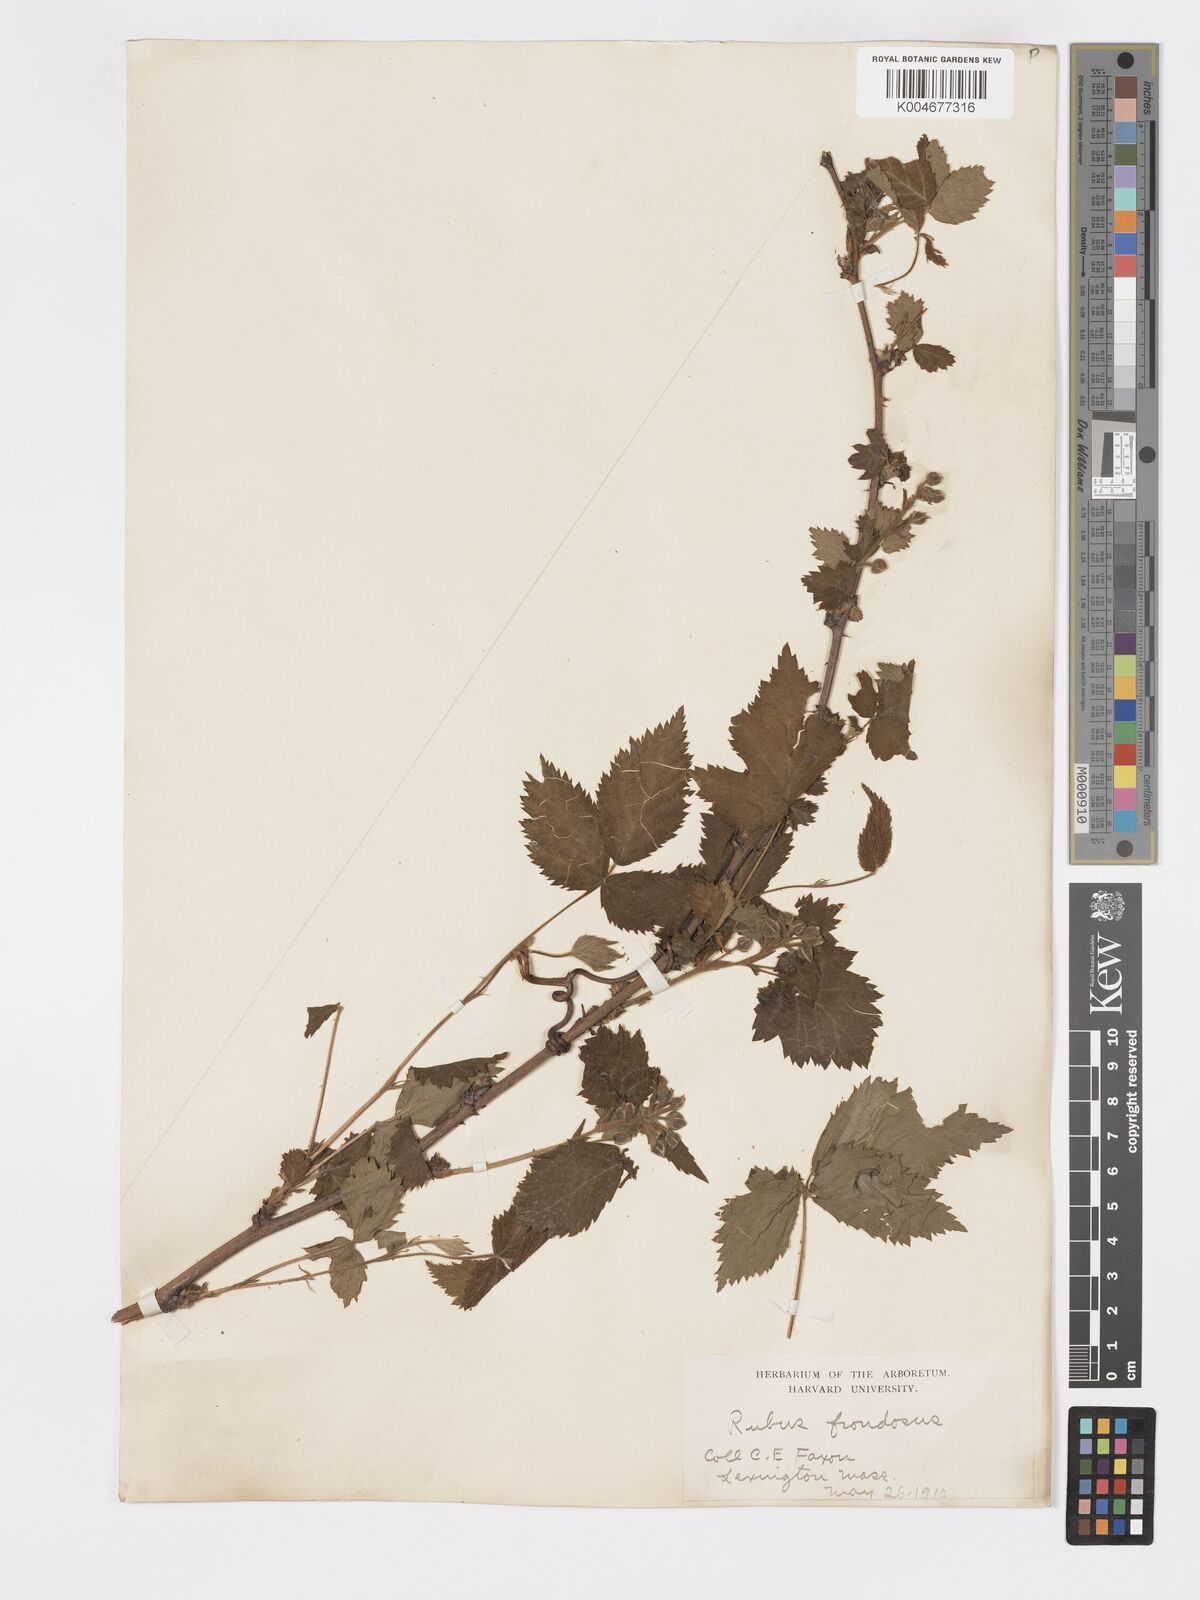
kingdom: Plantae
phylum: Tracheophyta
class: Magnoliopsida
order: Rosales
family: Rosaceae
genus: Rubus
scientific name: Rubus frondosus
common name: Yankee blackberry
